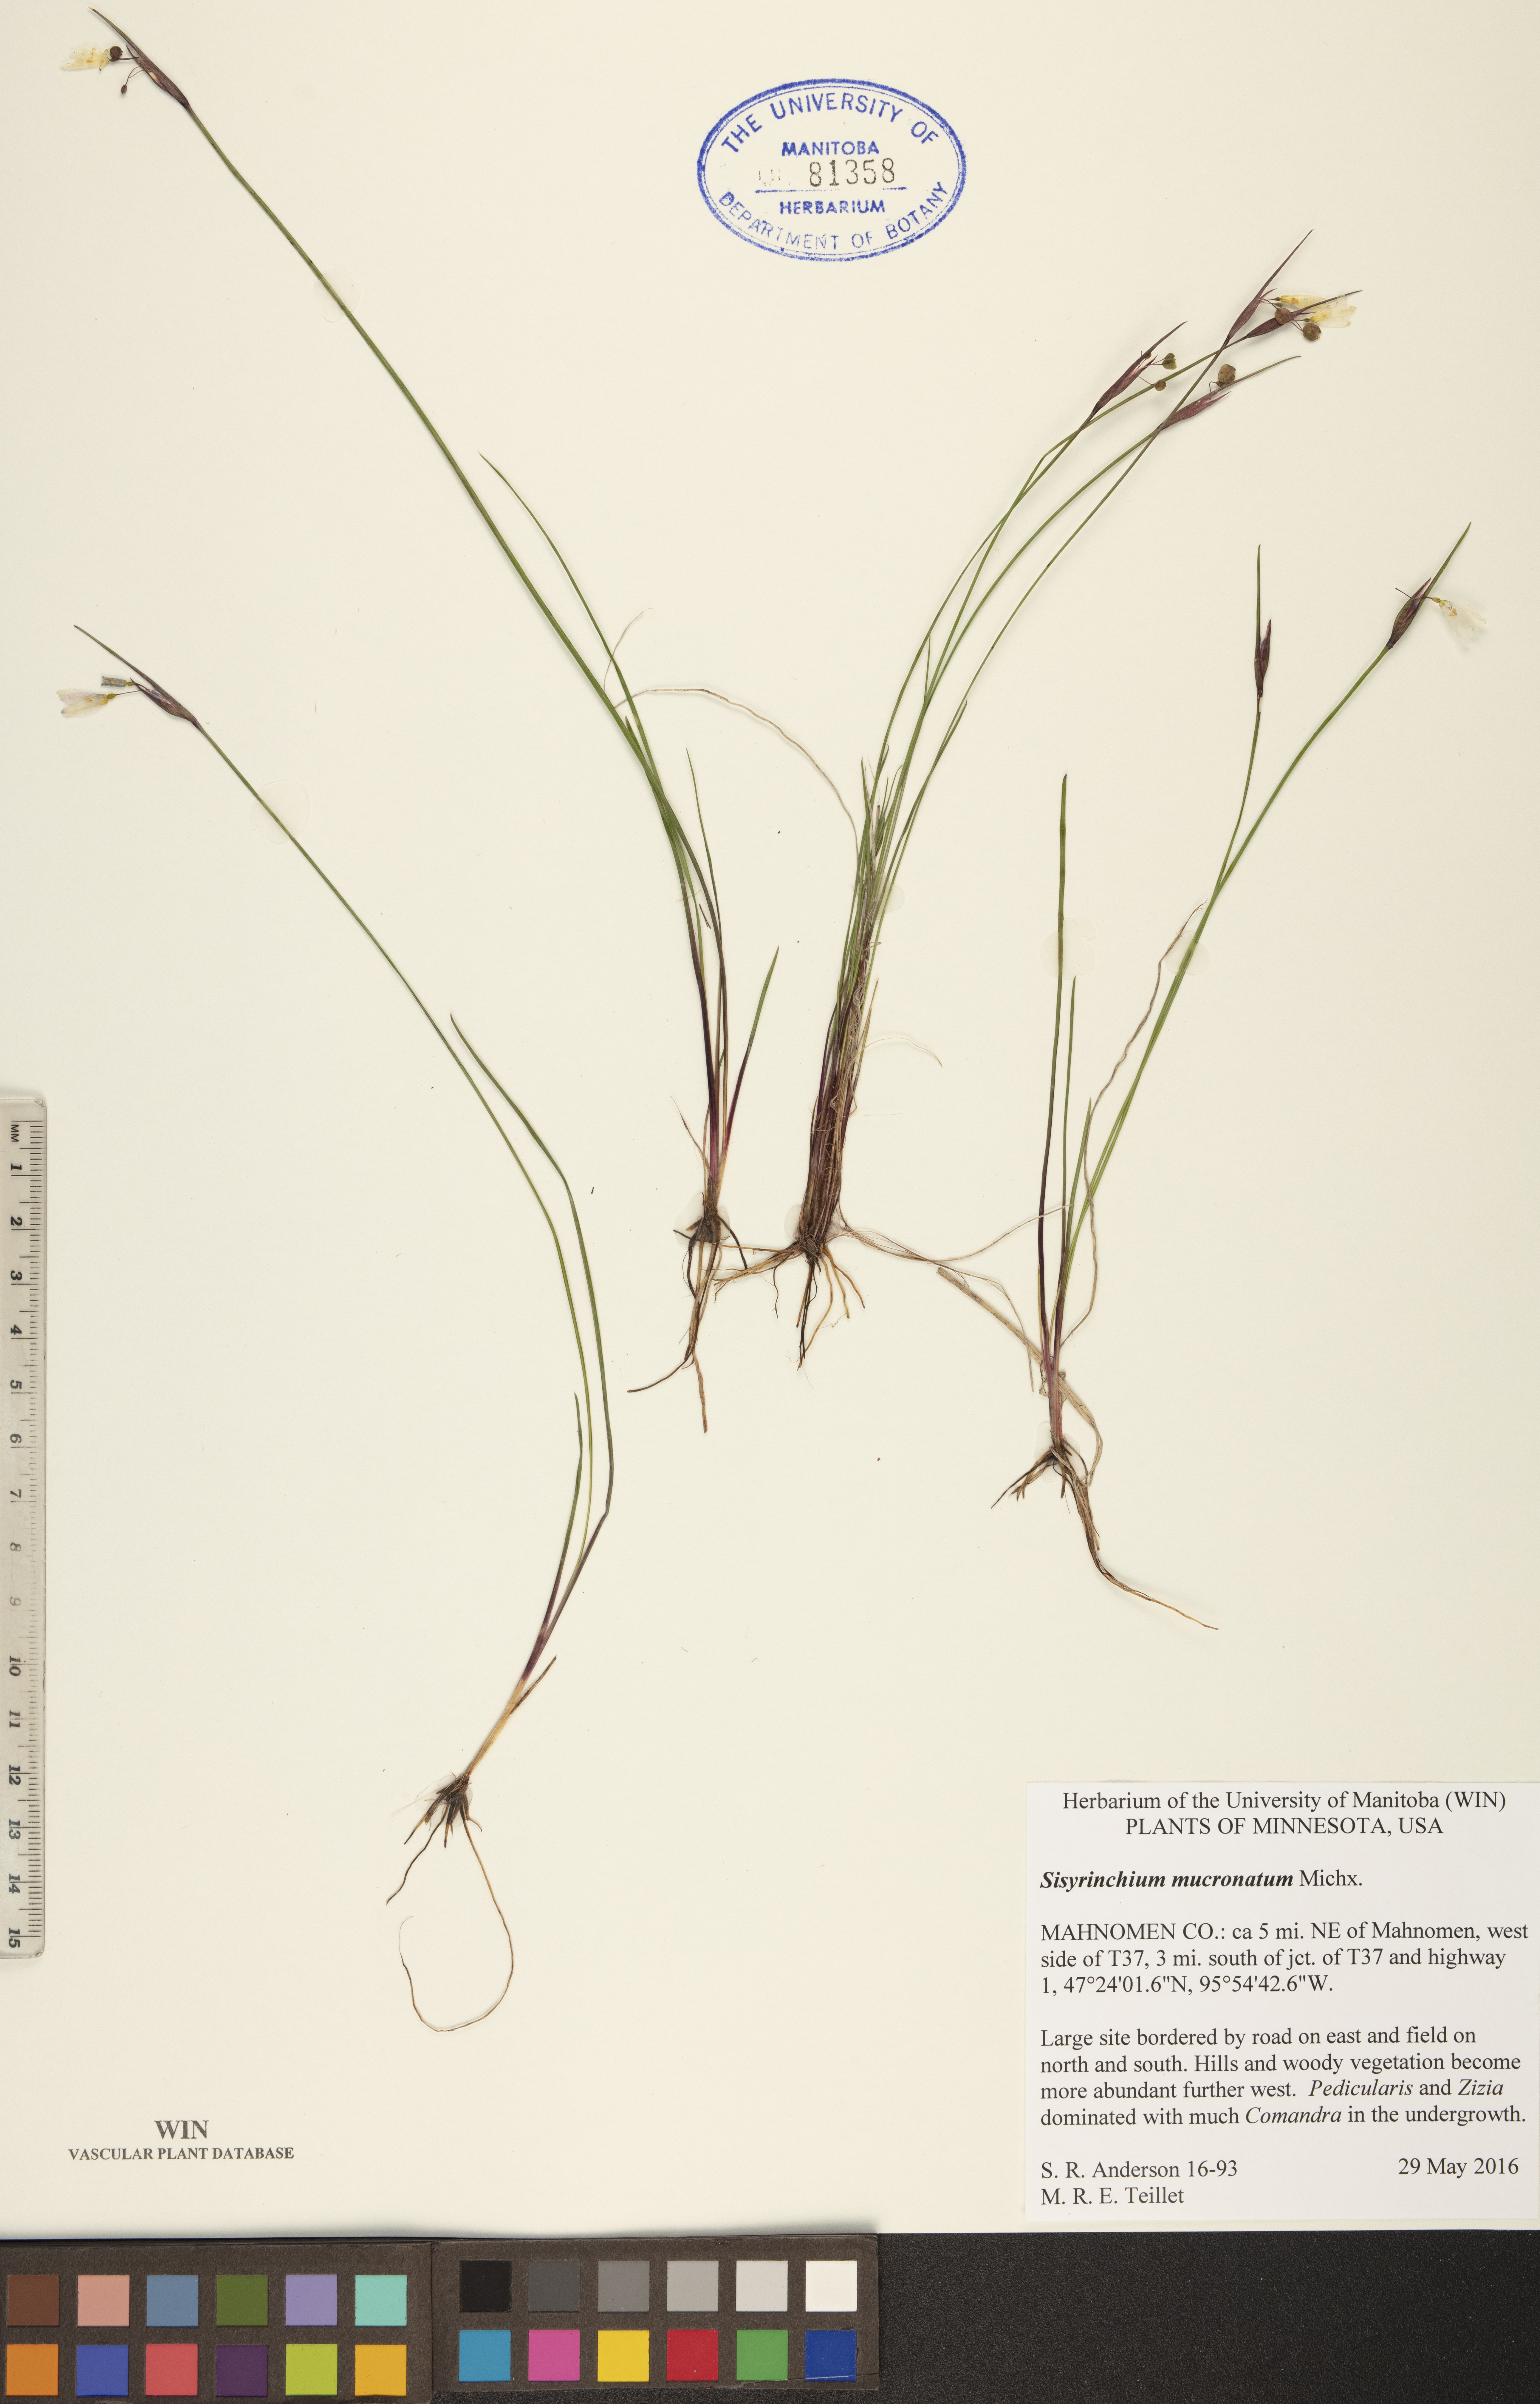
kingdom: Plantae
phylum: Tracheophyta
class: Liliopsida
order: Asparagales
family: Iridaceae
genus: Sisyrinchium
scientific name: Sisyrinchium mucronatum
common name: Eastern blue-eyed-grass
